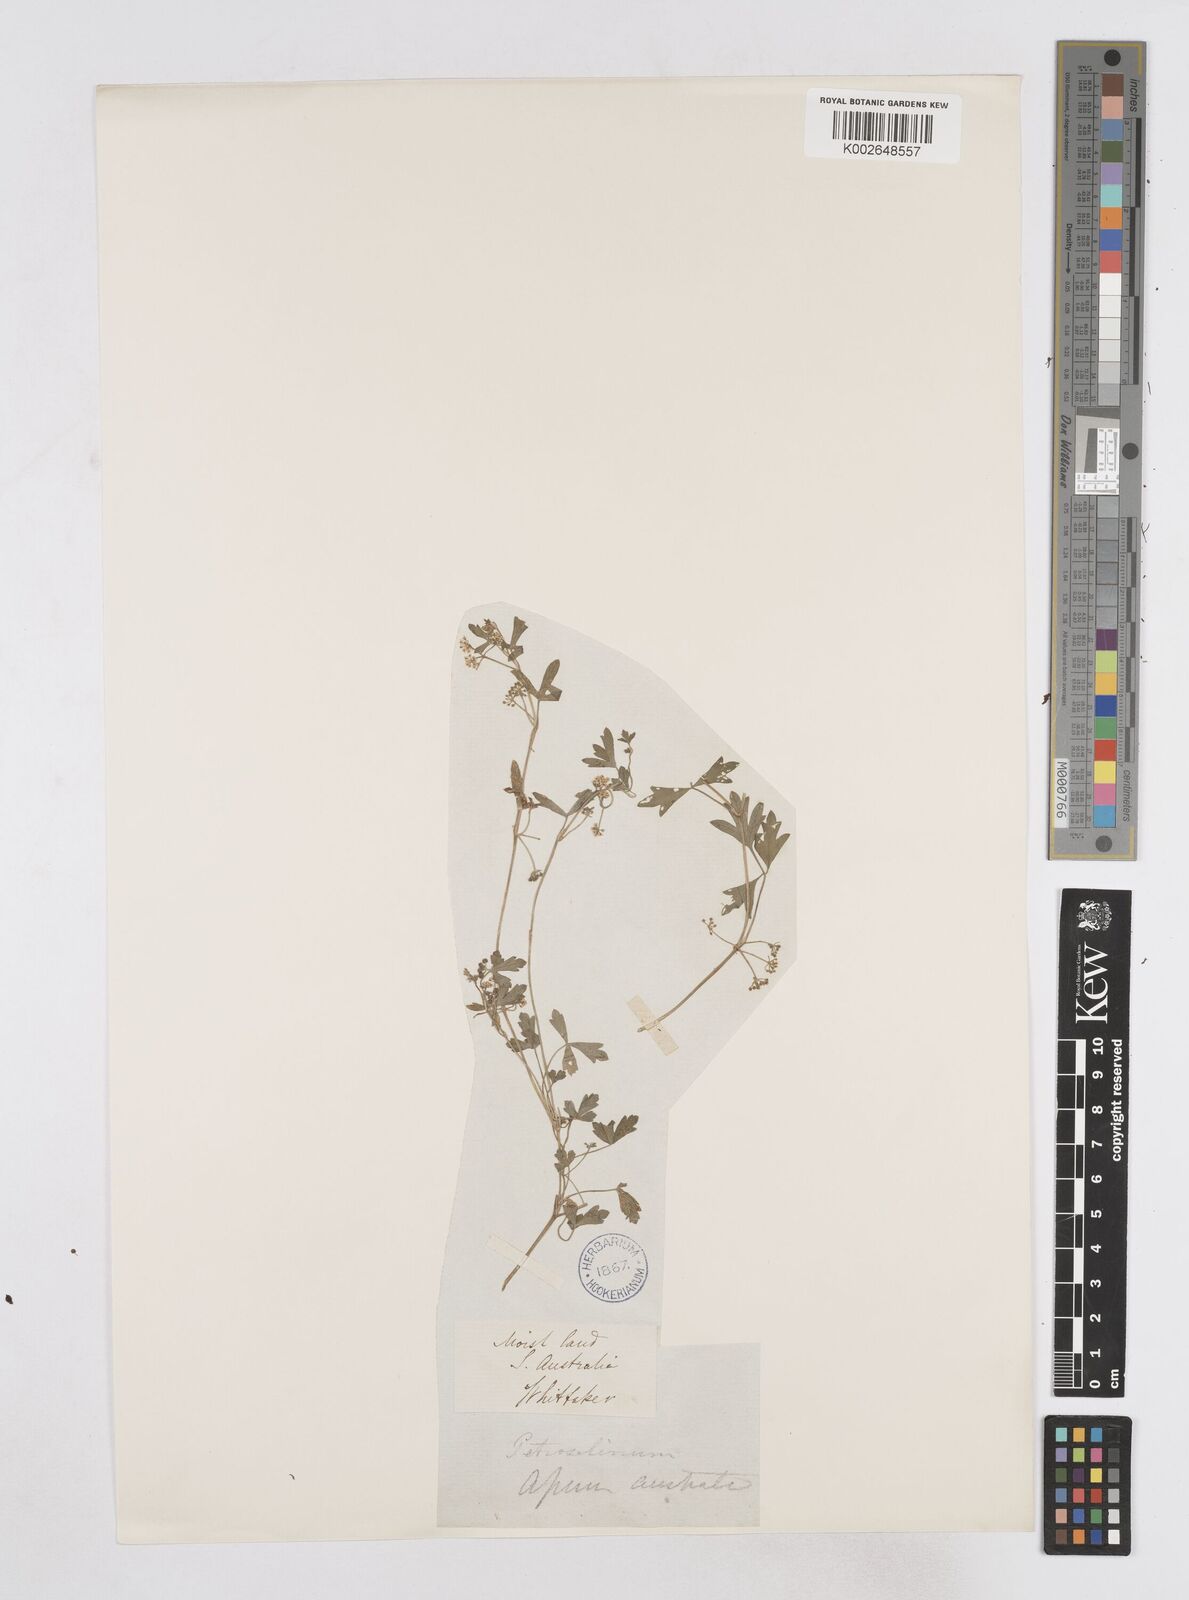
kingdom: Plantae
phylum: Tracheophyta
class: Magnoliopsida
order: Apiales
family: Apiaceae
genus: Apium
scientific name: Apium prostratum
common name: Prostrate marshwort
